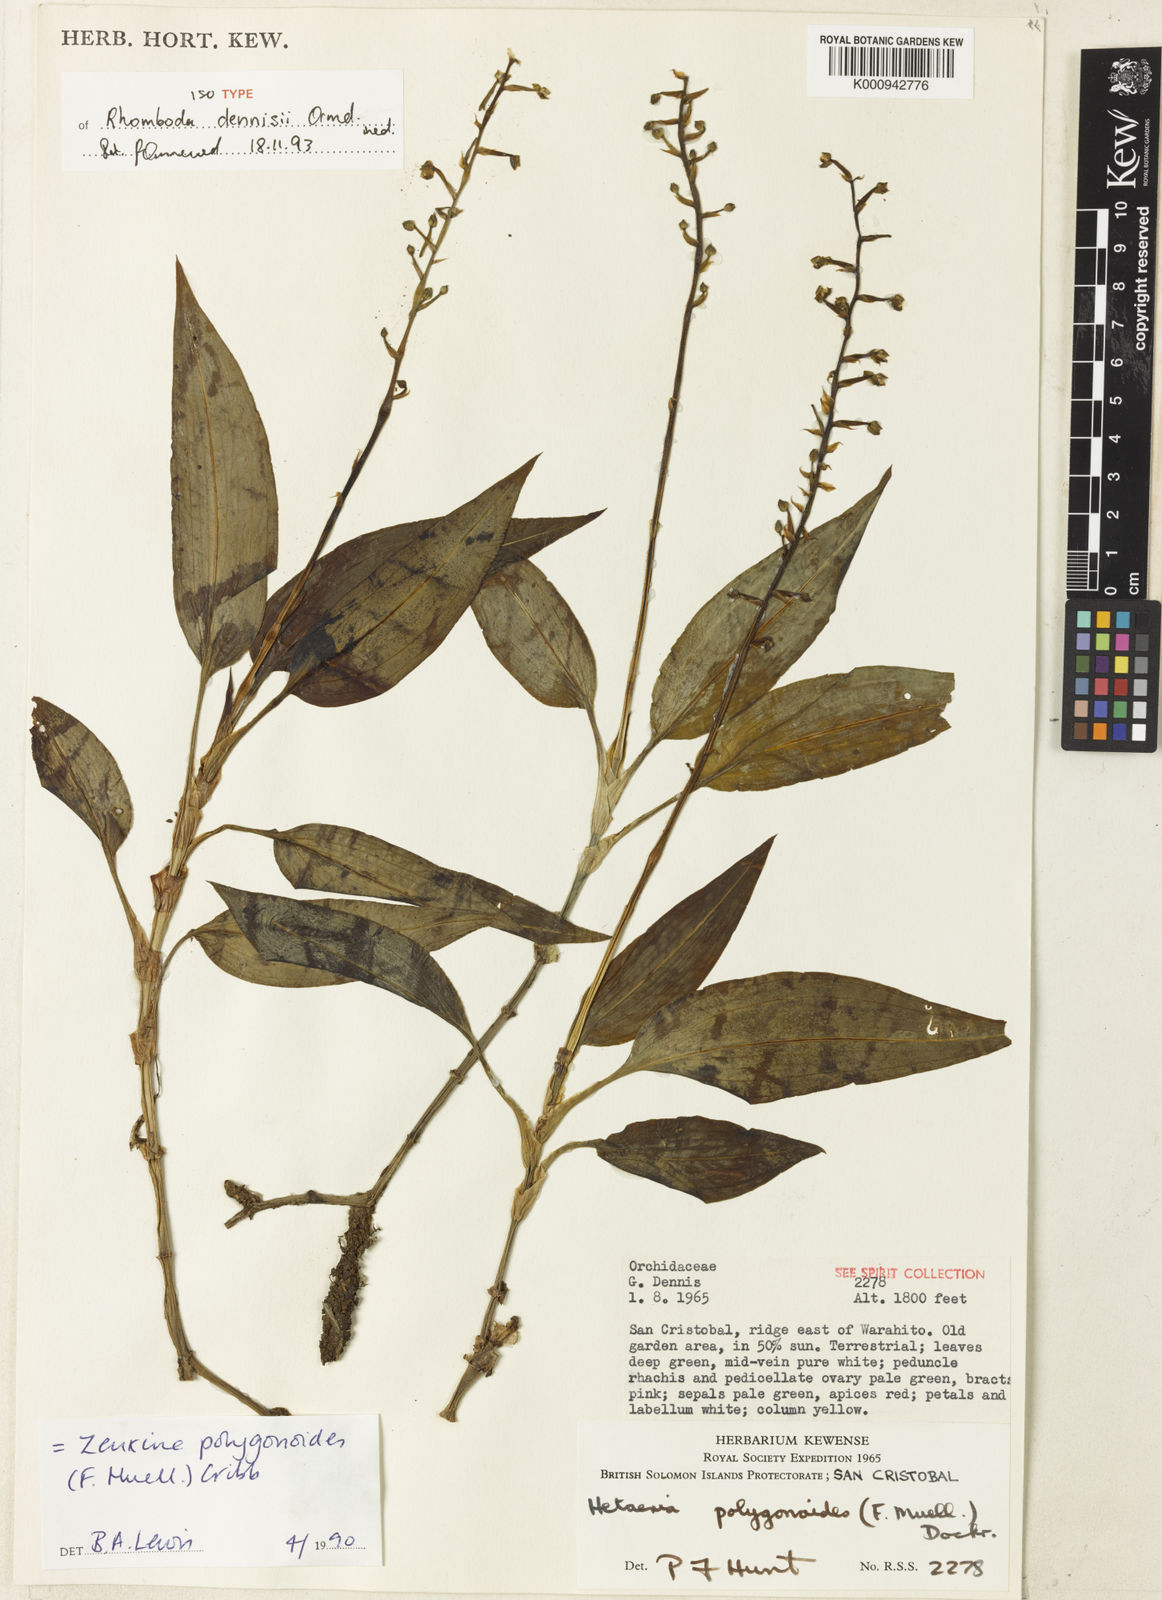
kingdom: Plantae
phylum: Tracheophyta
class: Liliopsida
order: Asparagales
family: Orchidaceae
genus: Rhomboda
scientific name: Rhomboda dennisii
